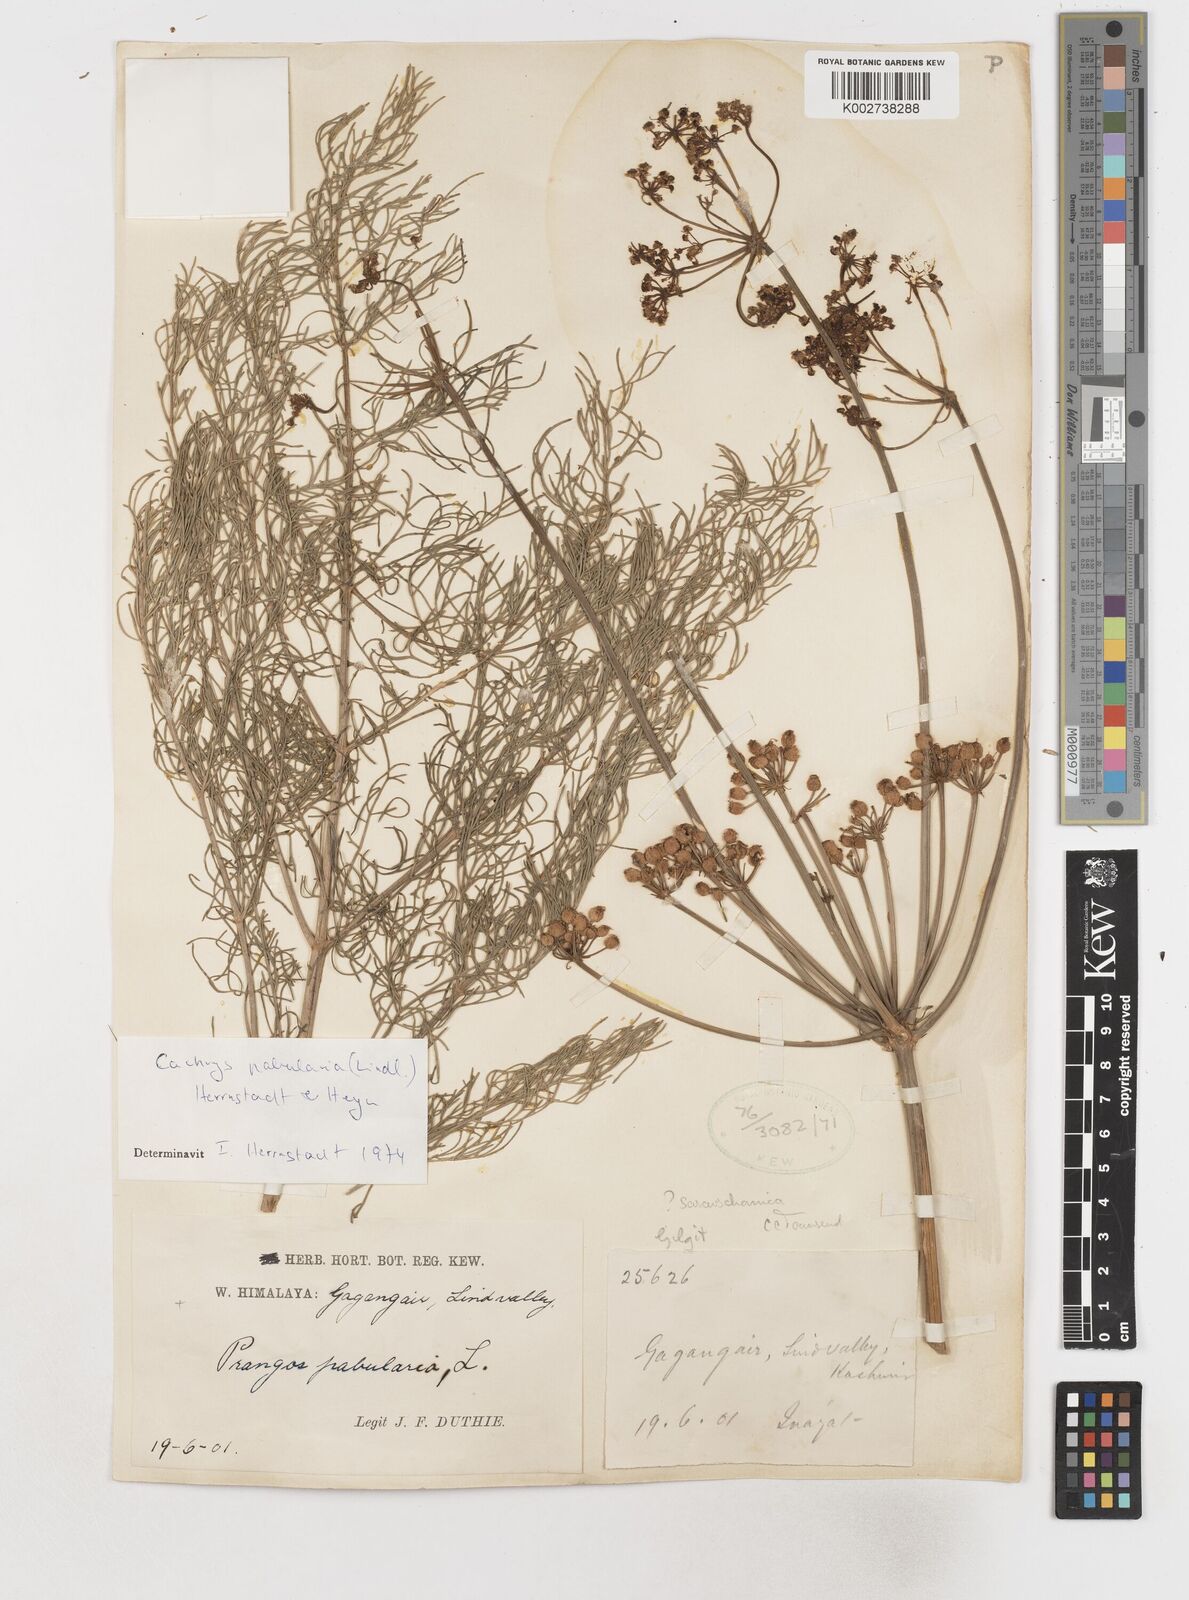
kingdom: Plantae
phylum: Tracheophyta
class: Magnoliopsida
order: Apiales
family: Apiaceae
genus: Prangos
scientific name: Prangos
